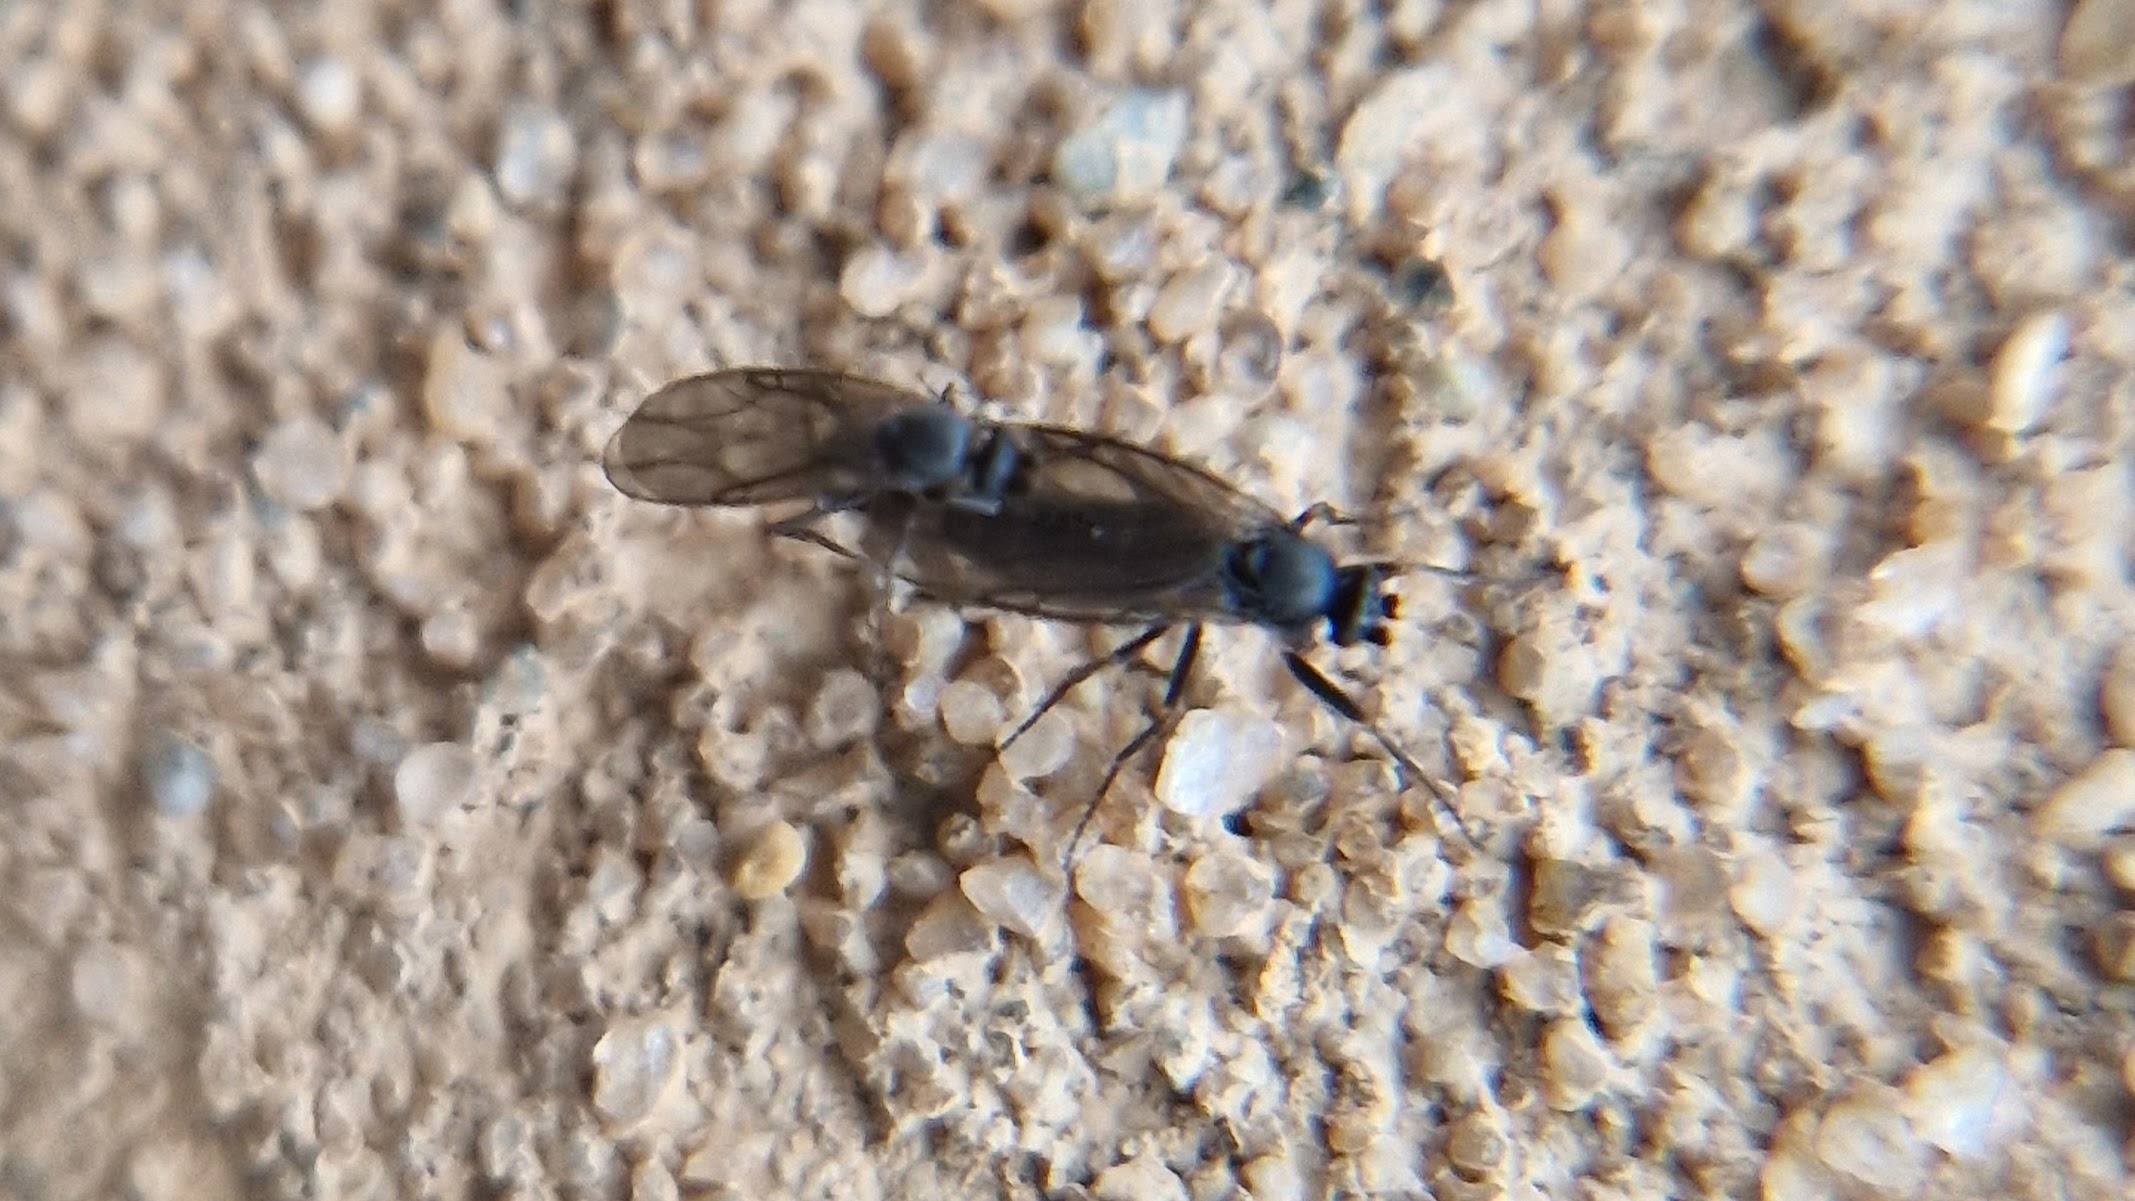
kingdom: Animalia
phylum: Arthropoda
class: Insecta
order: Diptera
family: Phoridae
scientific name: Phoridae
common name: Pukkelfluer
